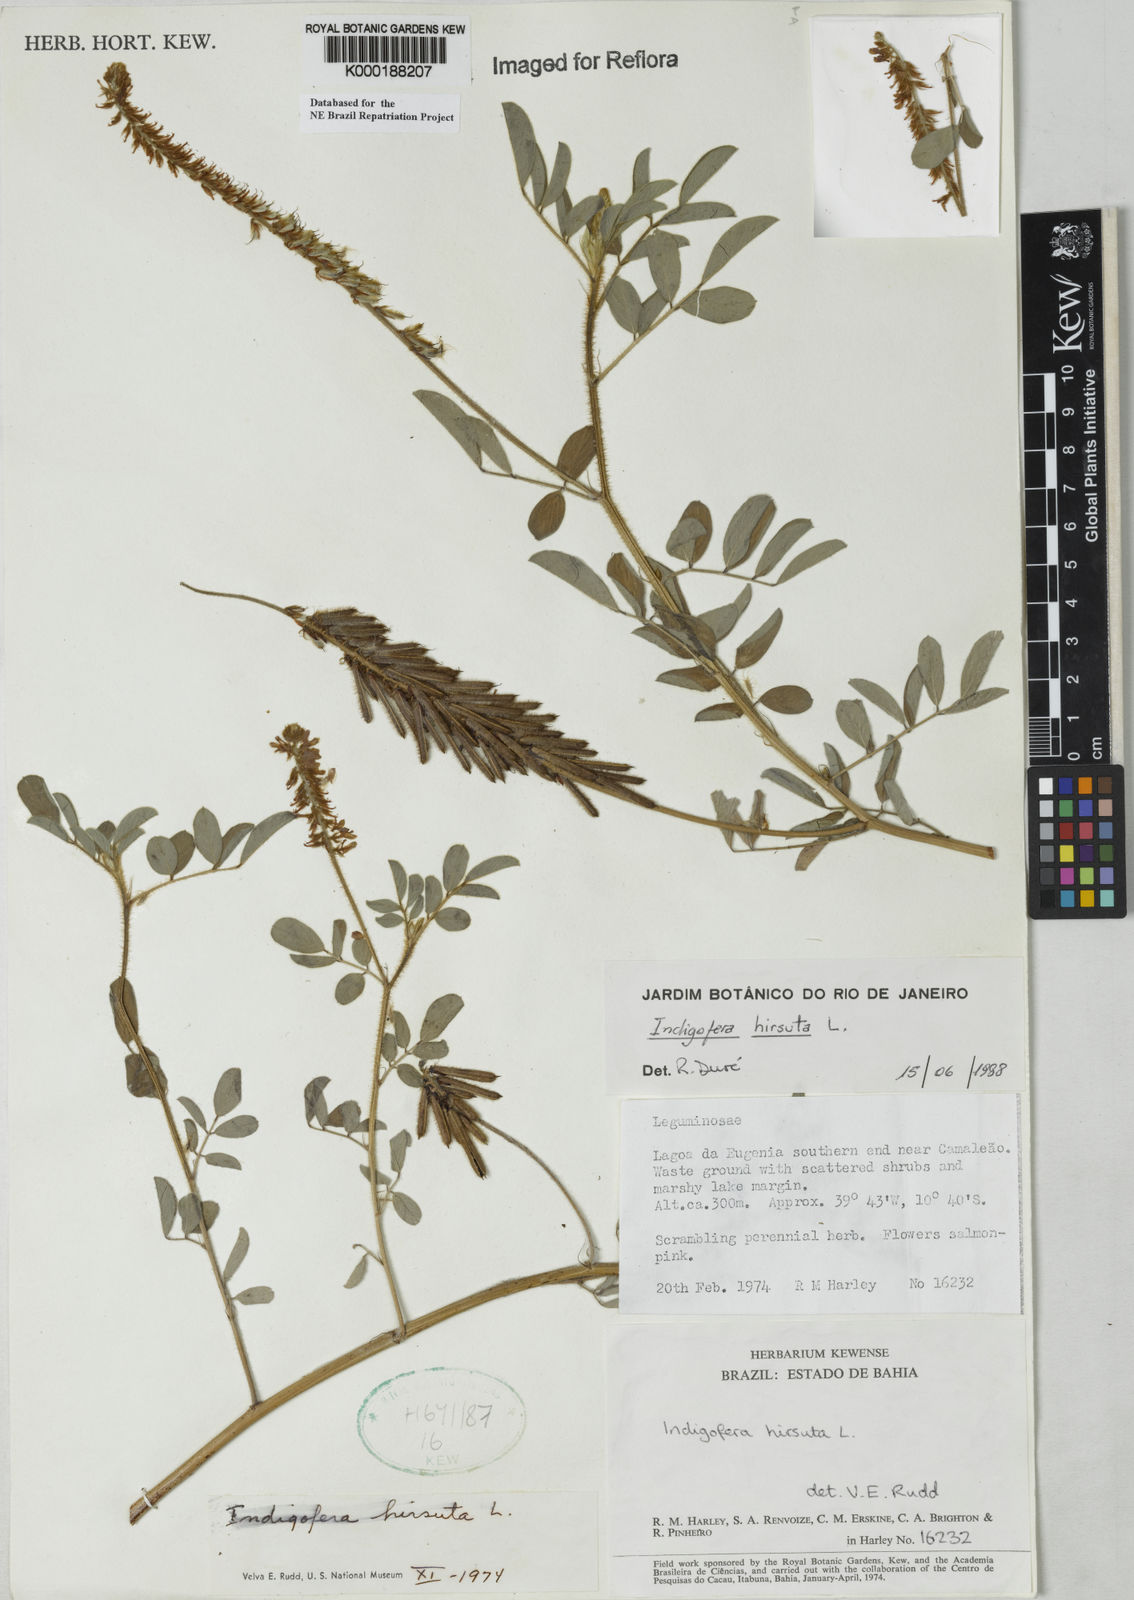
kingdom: Plantae
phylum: Tracheophyta
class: Magnoliopsida
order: Fabales
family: Fabaceae
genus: Indigofera
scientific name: Indigofera hirsuta
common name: Hairy indigo
